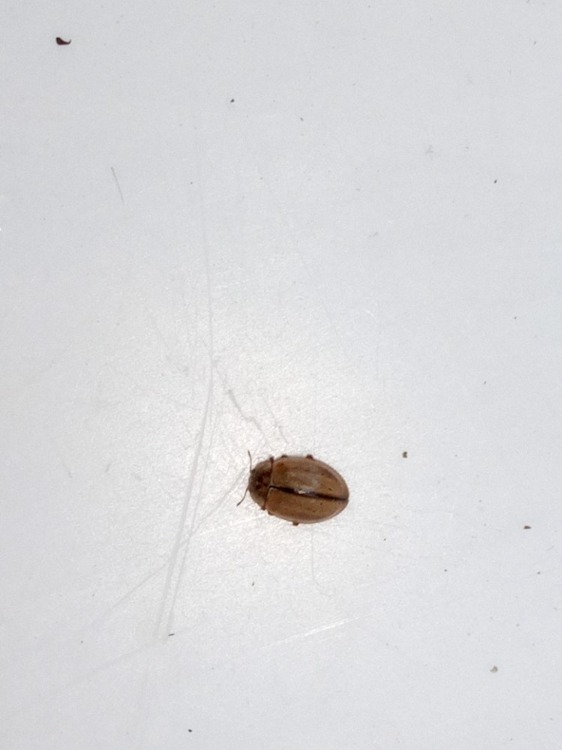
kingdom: Animalia
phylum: Arthropoda
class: Insecta
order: Coleoptera
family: Coccinellidae
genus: Aphidecta
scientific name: Aphidecta obliterata
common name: Uplettet mariehøne
